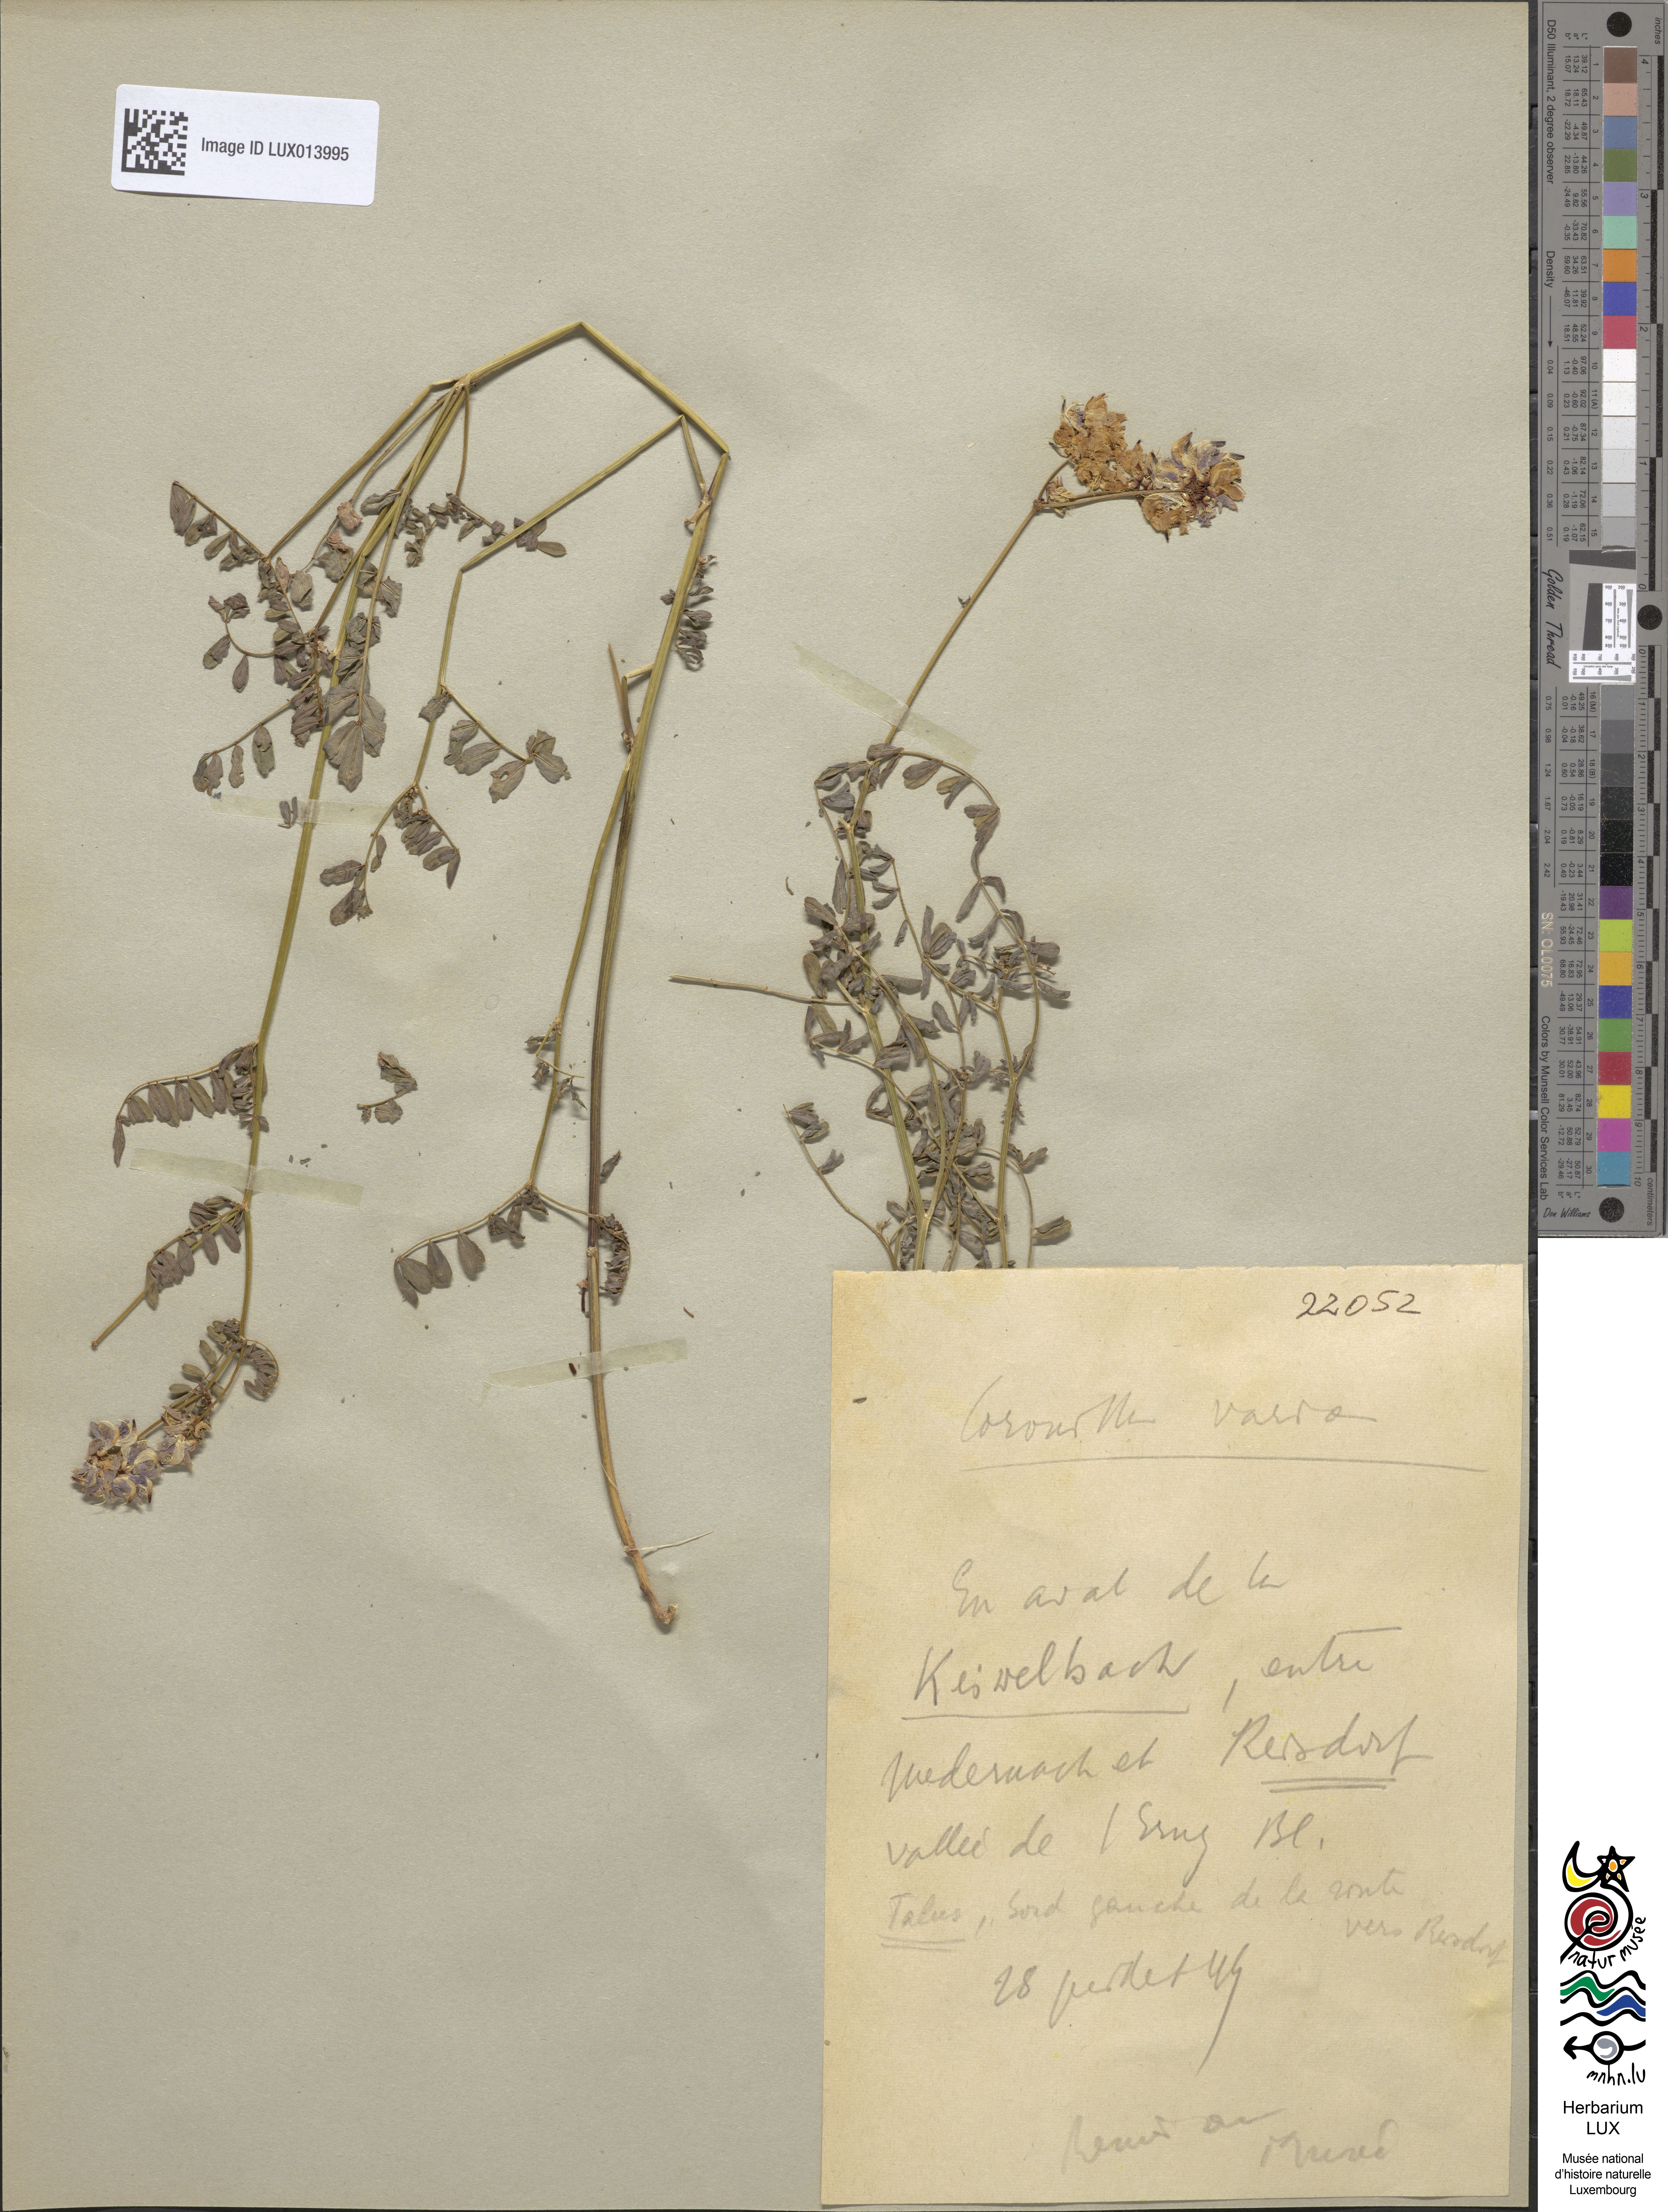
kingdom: Plantae
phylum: Tracheophyta
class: Magnoliopsida
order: Fabales
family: Fabaceae
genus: Coronilla
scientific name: Coronilla varia
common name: Crownvetch
